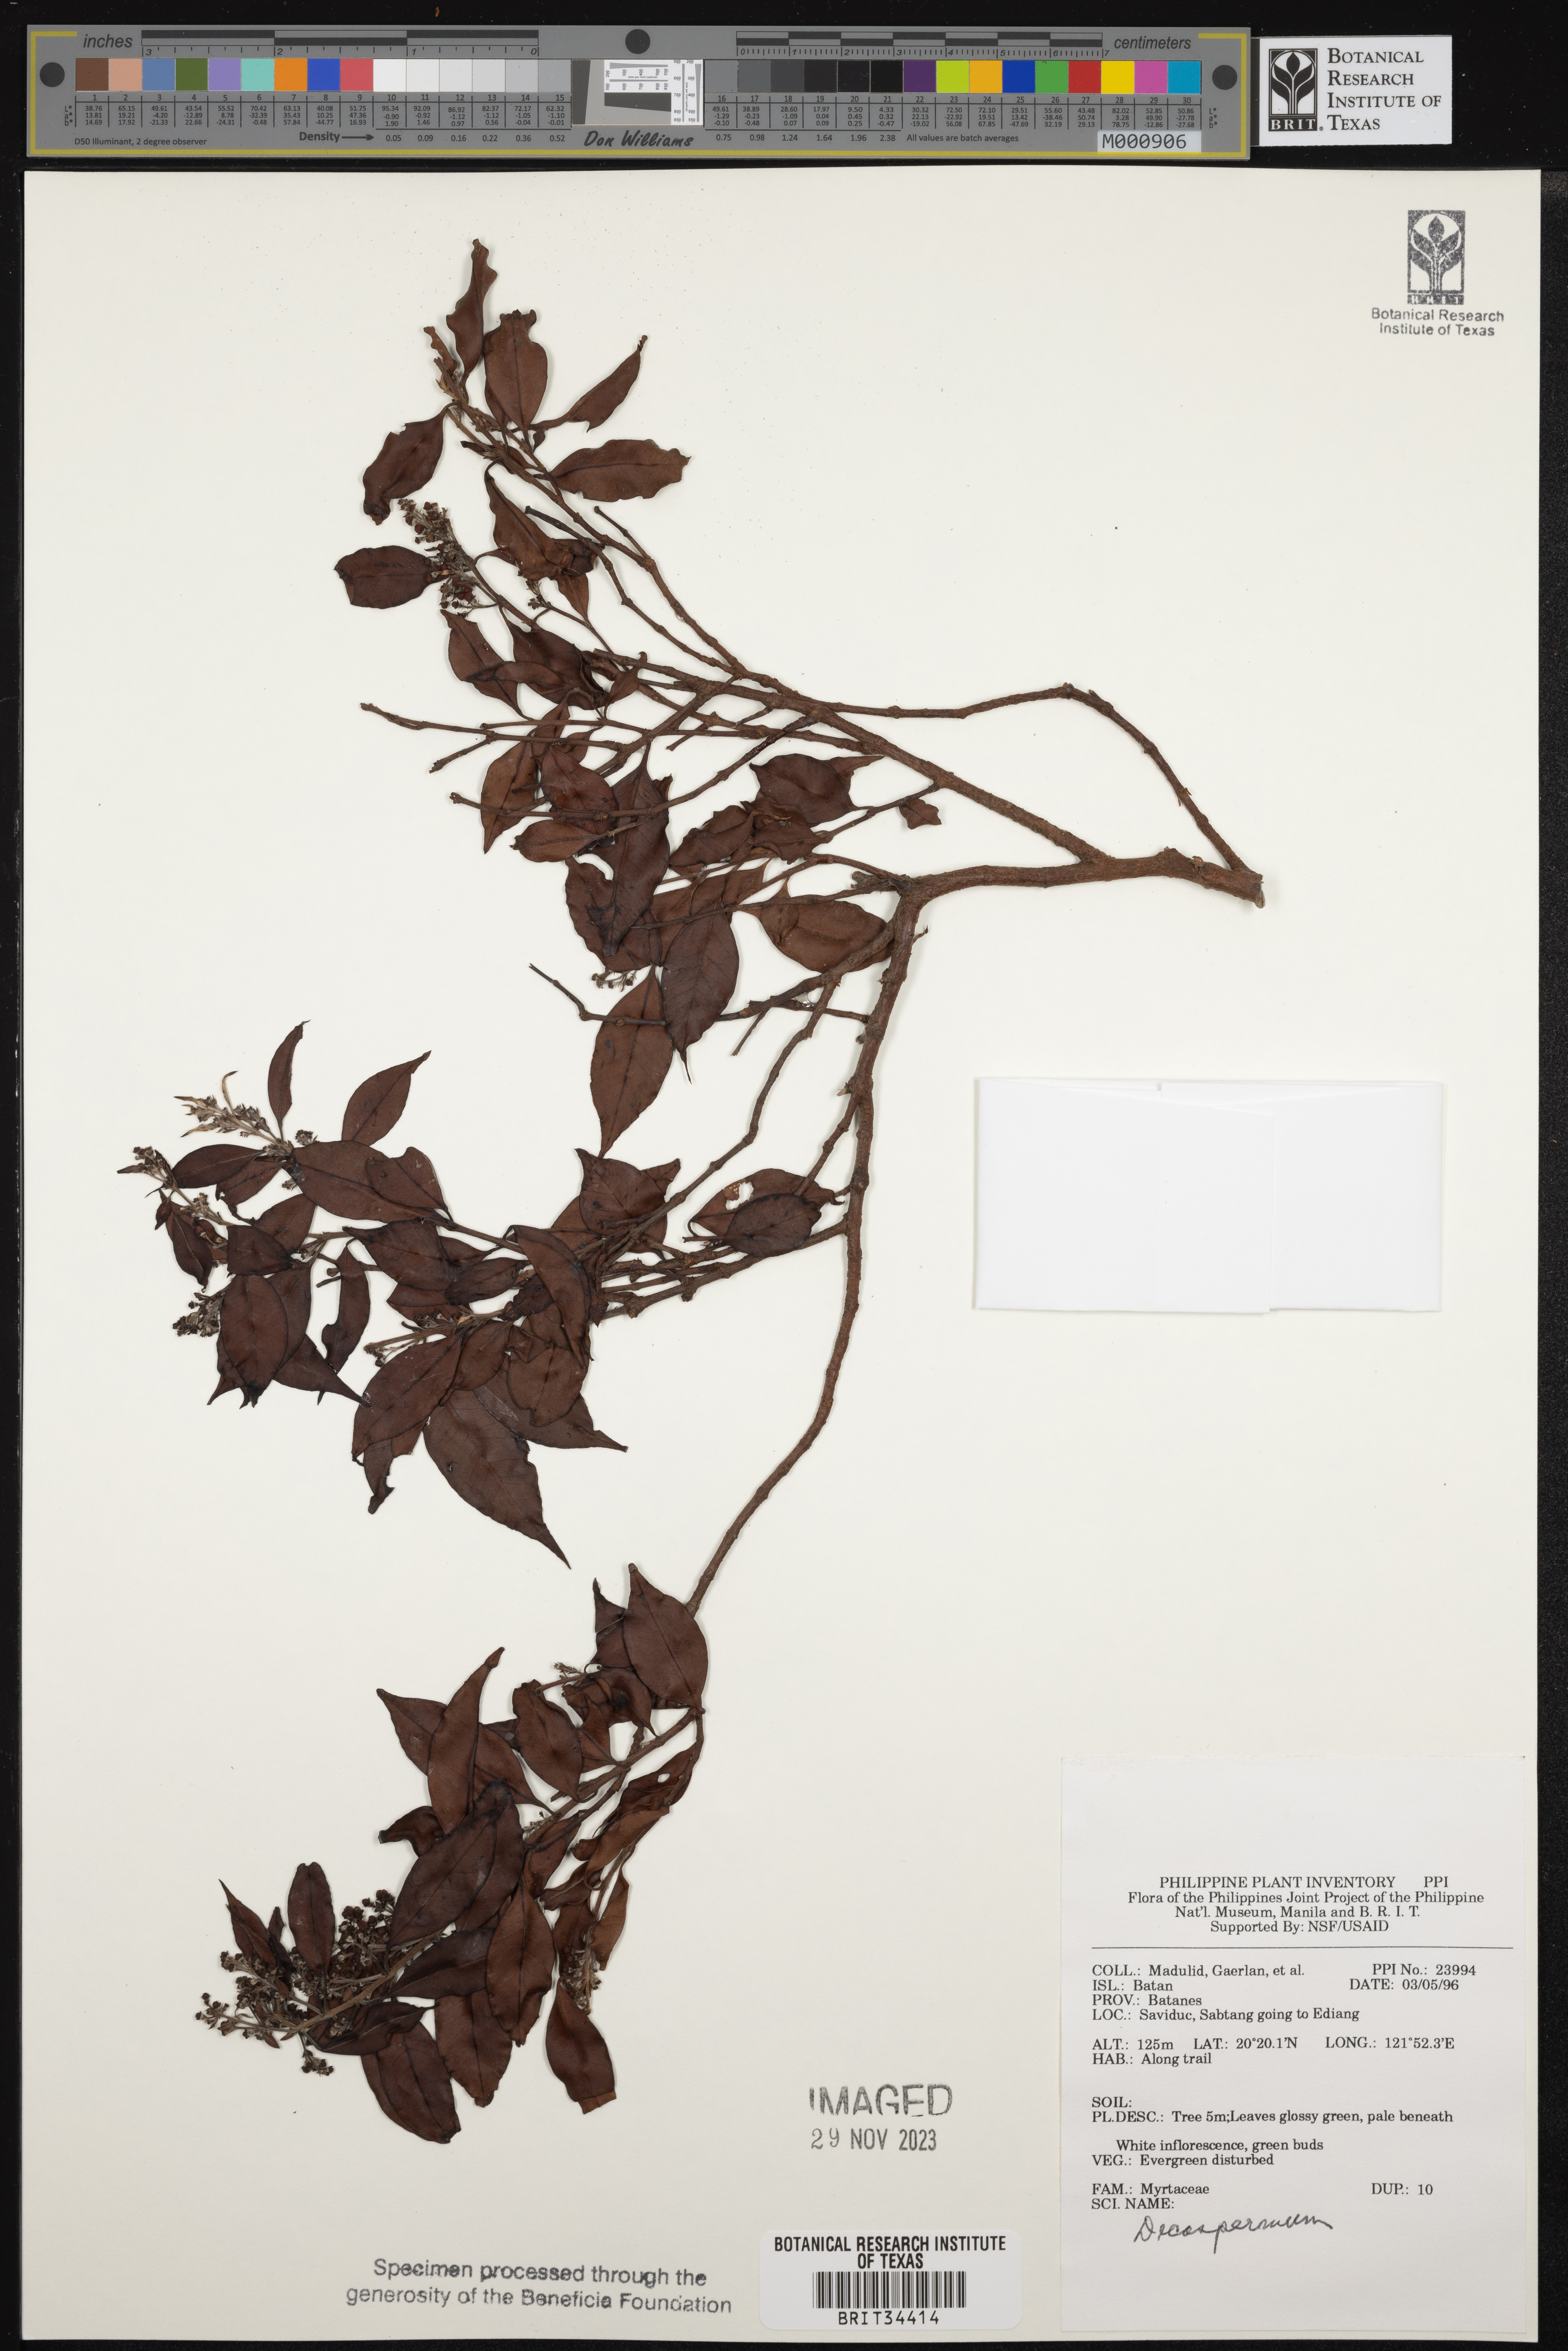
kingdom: Plantae
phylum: Tracheophyta
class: Magnoliopsida
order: Myrtales
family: Myrtaceae
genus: Decaspermum
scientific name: Decaspermum
